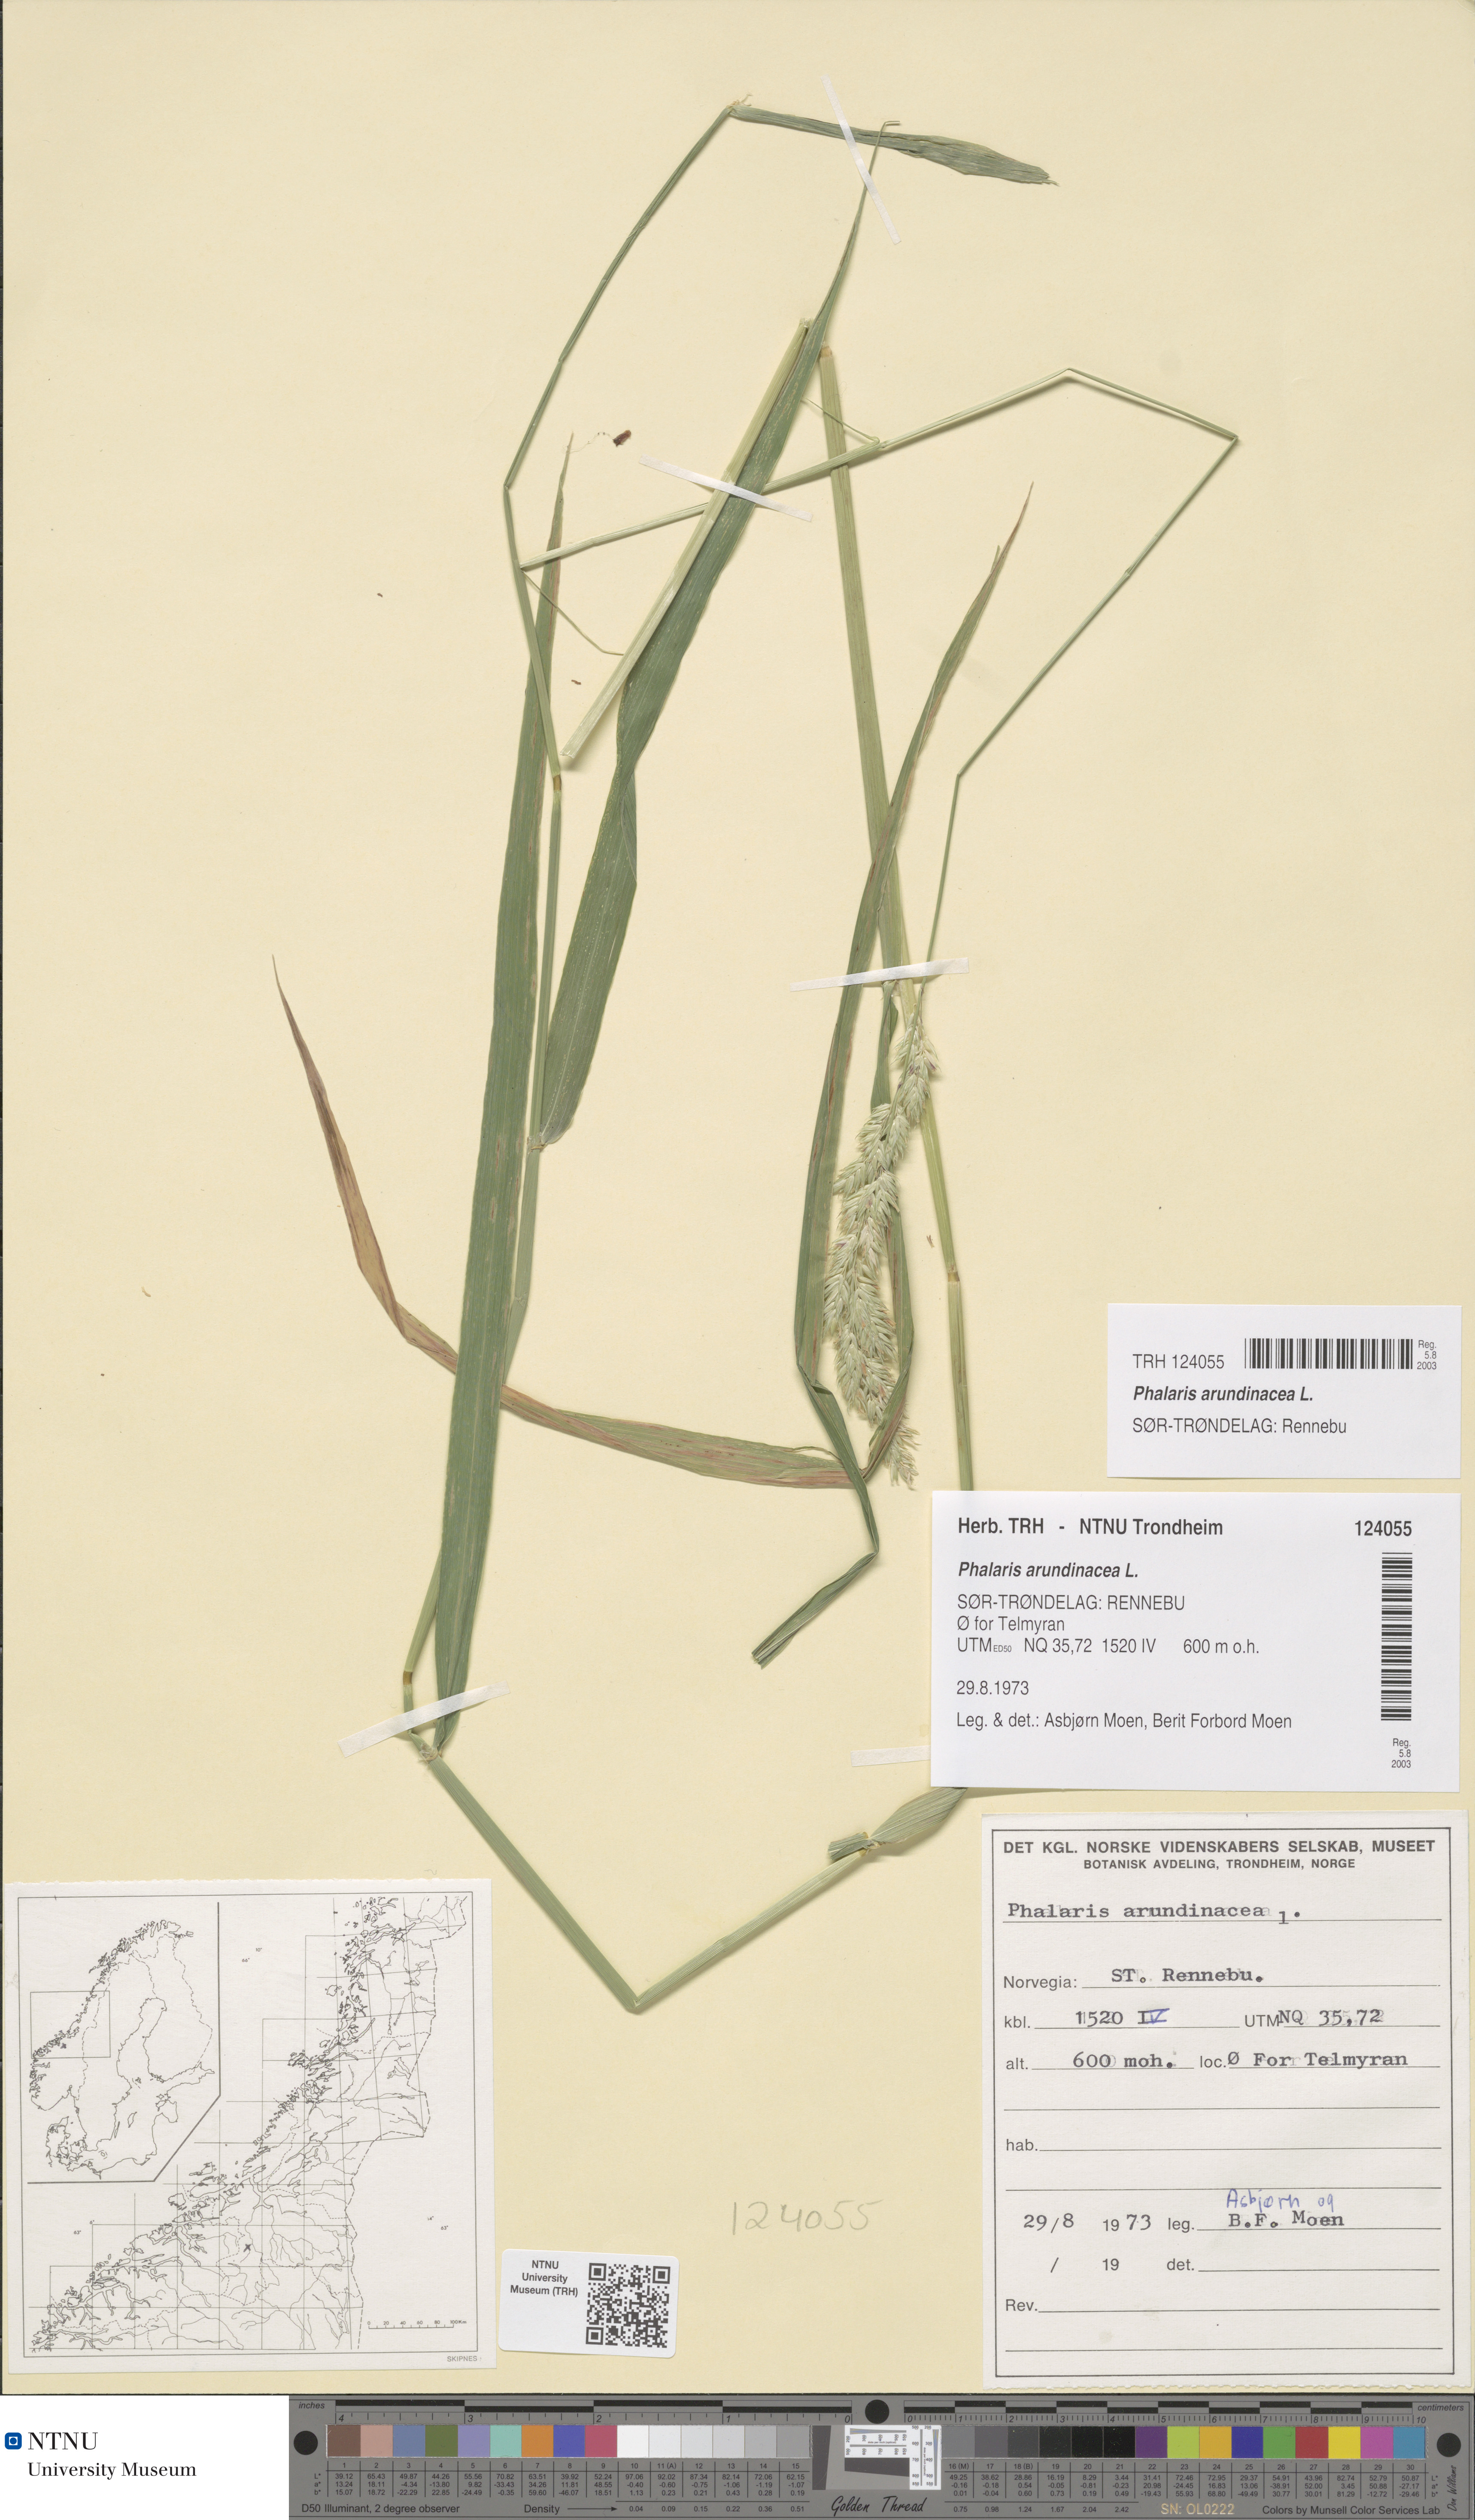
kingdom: Plantae
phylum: Tracheophyta
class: Liliopsida
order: Poales
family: Poaceae
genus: Phalaris
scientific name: Phalaris arundinacea
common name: Reed canary-grass
